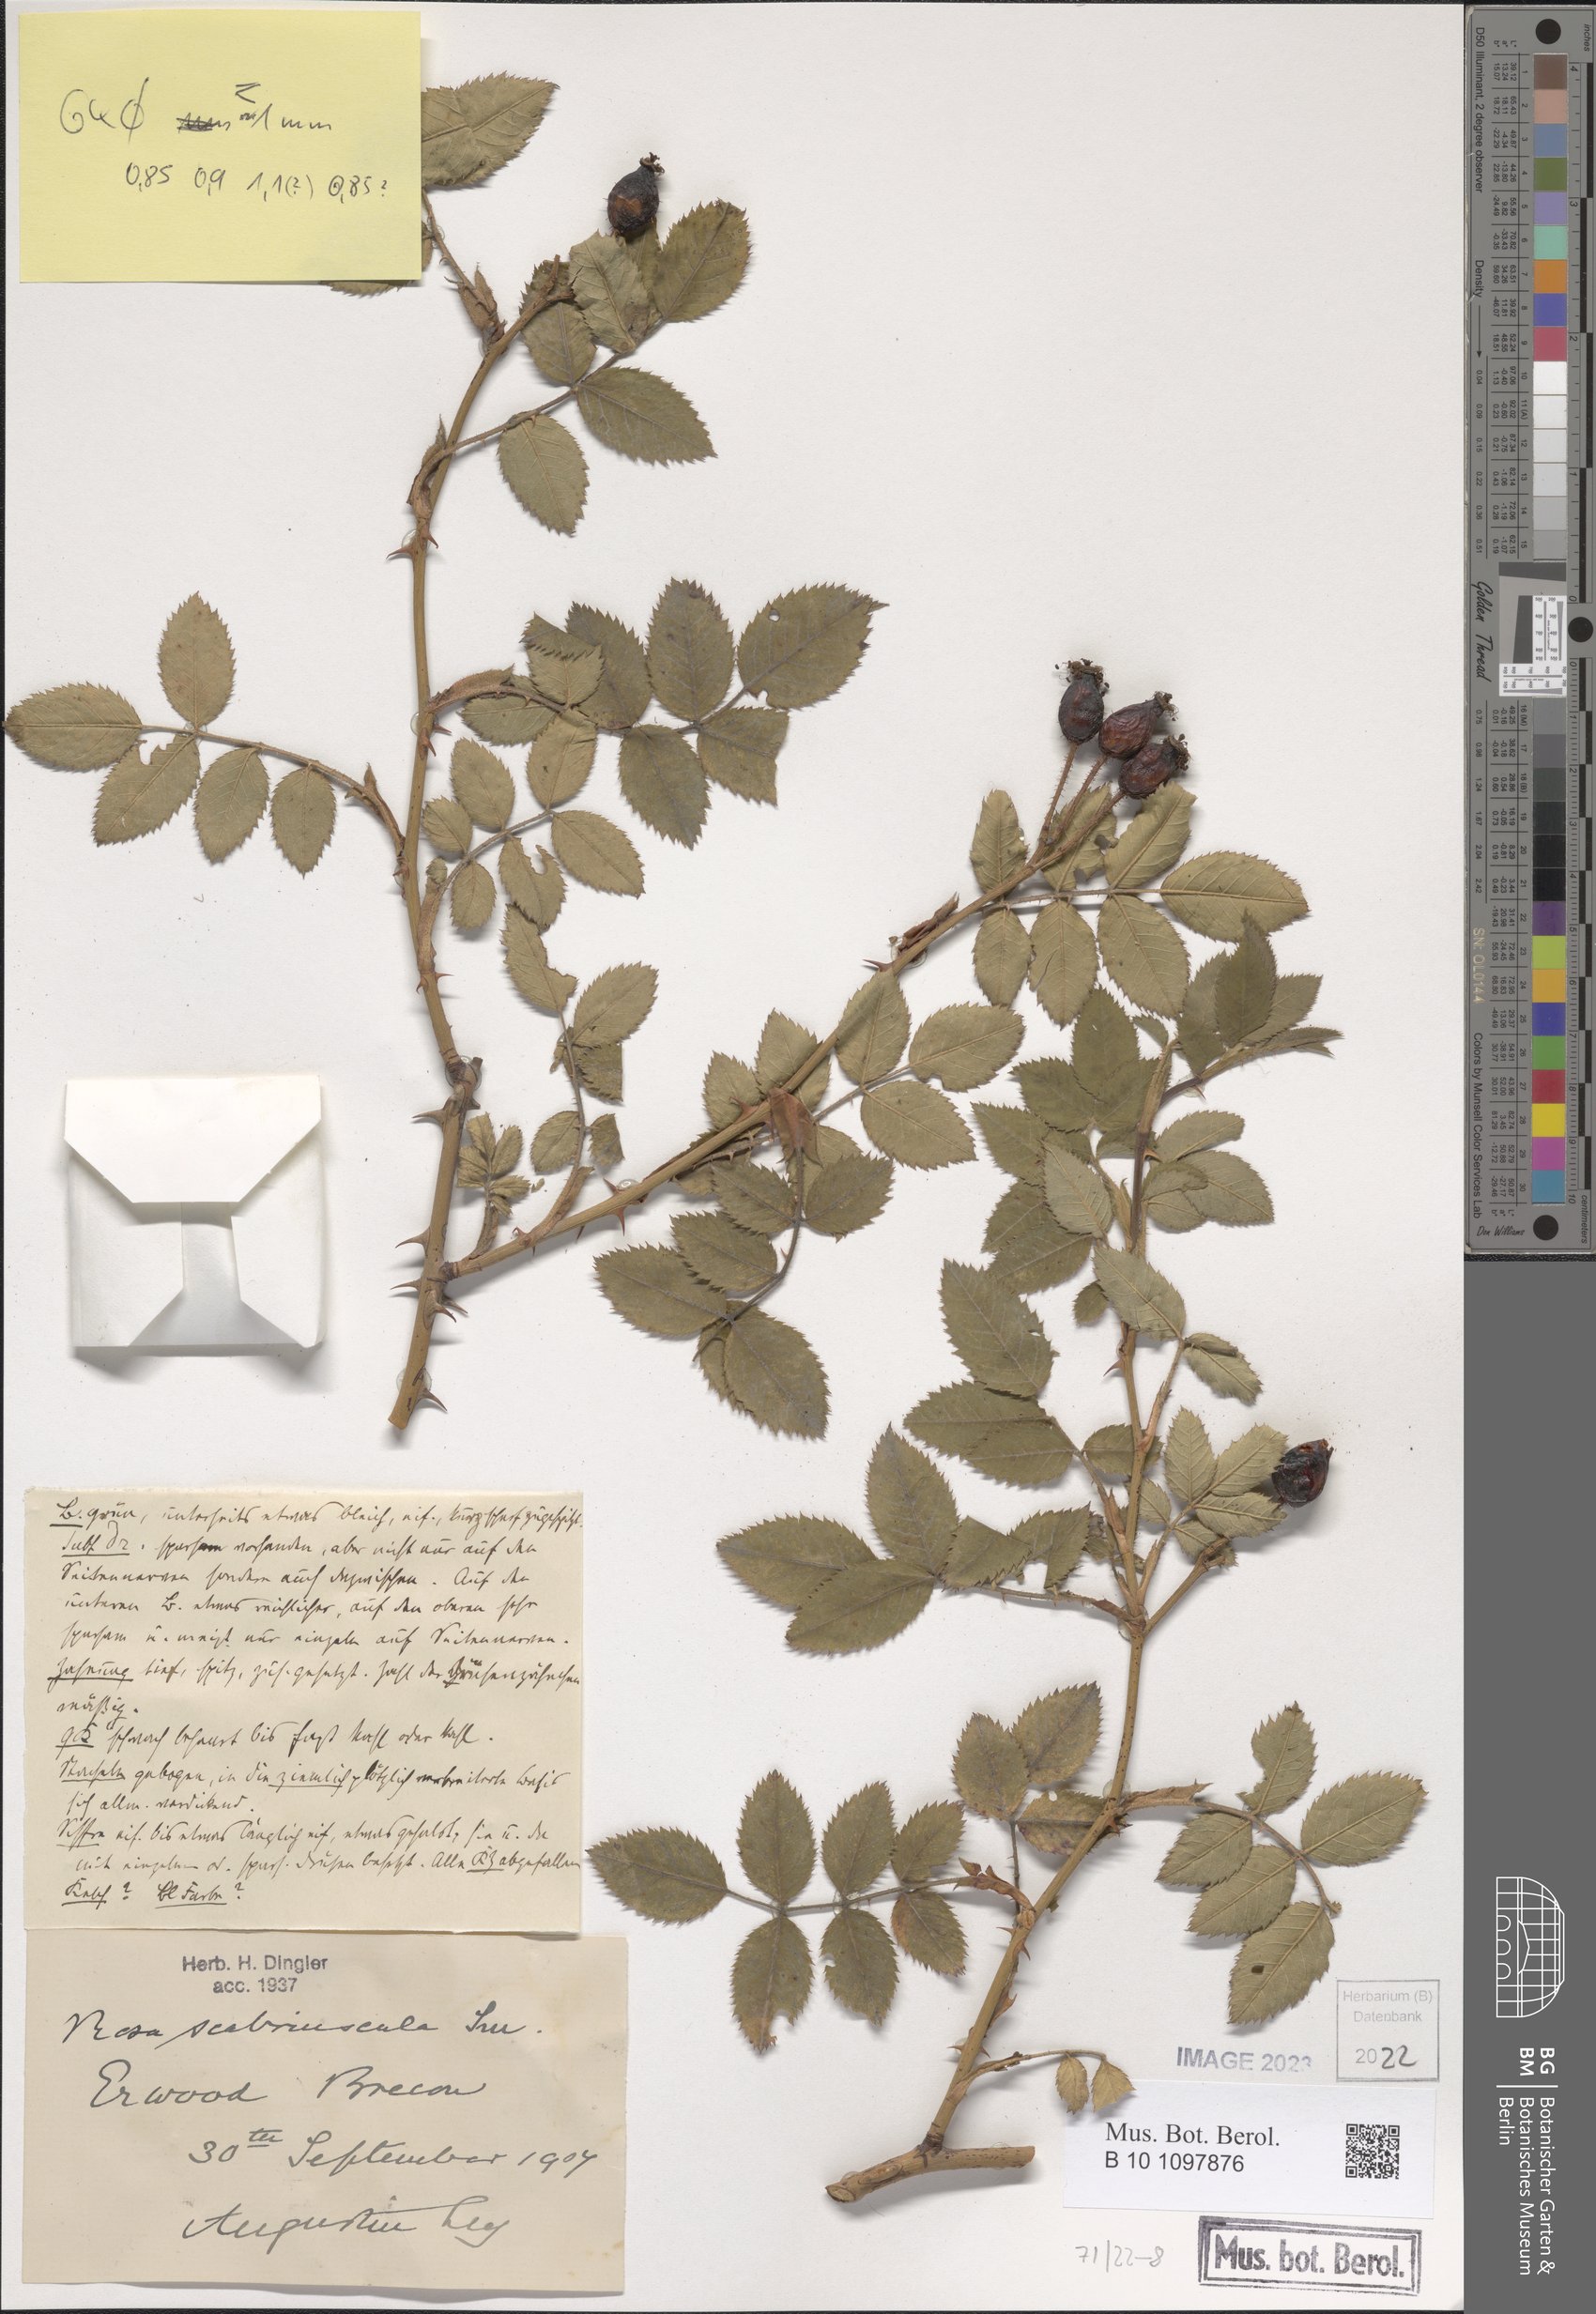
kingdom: Plantae
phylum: Tracheophyta
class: Magnoliopsida
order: Rosales
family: Rosaceae
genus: Rosa
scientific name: Rosa scabriuscula
